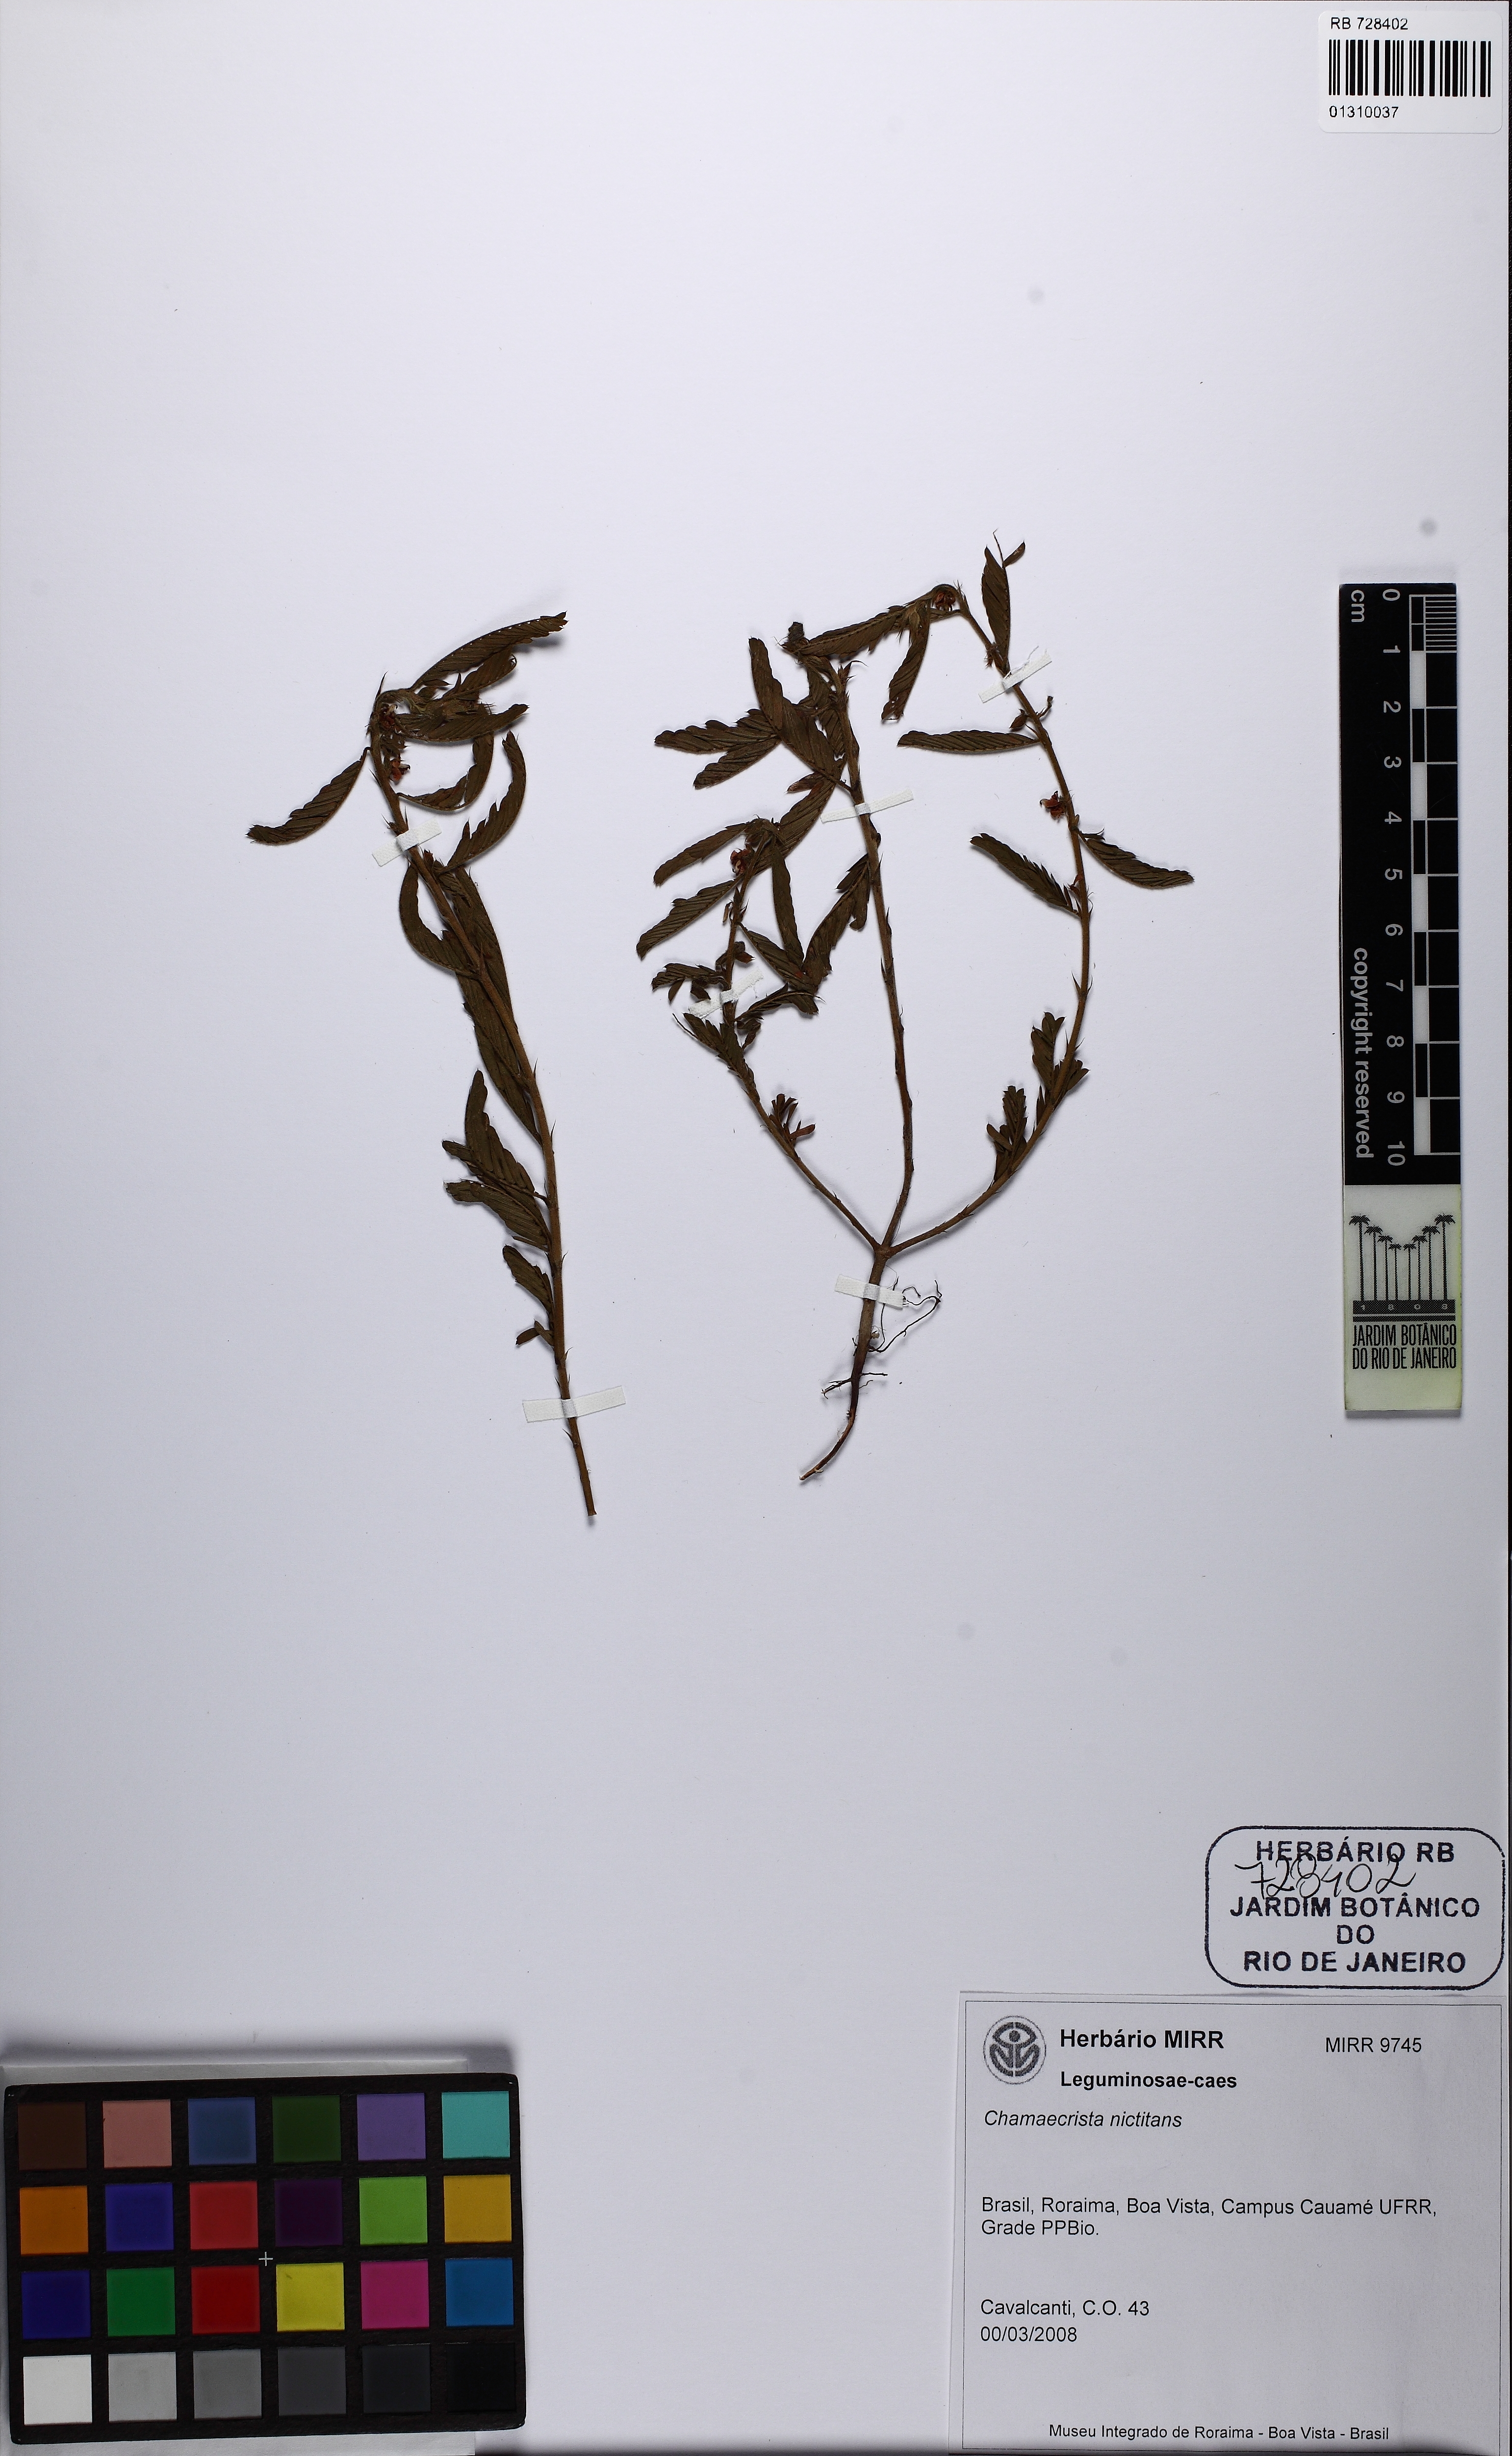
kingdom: Plantae
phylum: Tracheophyta
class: Magnoliopsida
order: Fabales
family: Fabaceae
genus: Chamaecrista
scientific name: Chamaecrista nictitans
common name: Sensitive cassia
